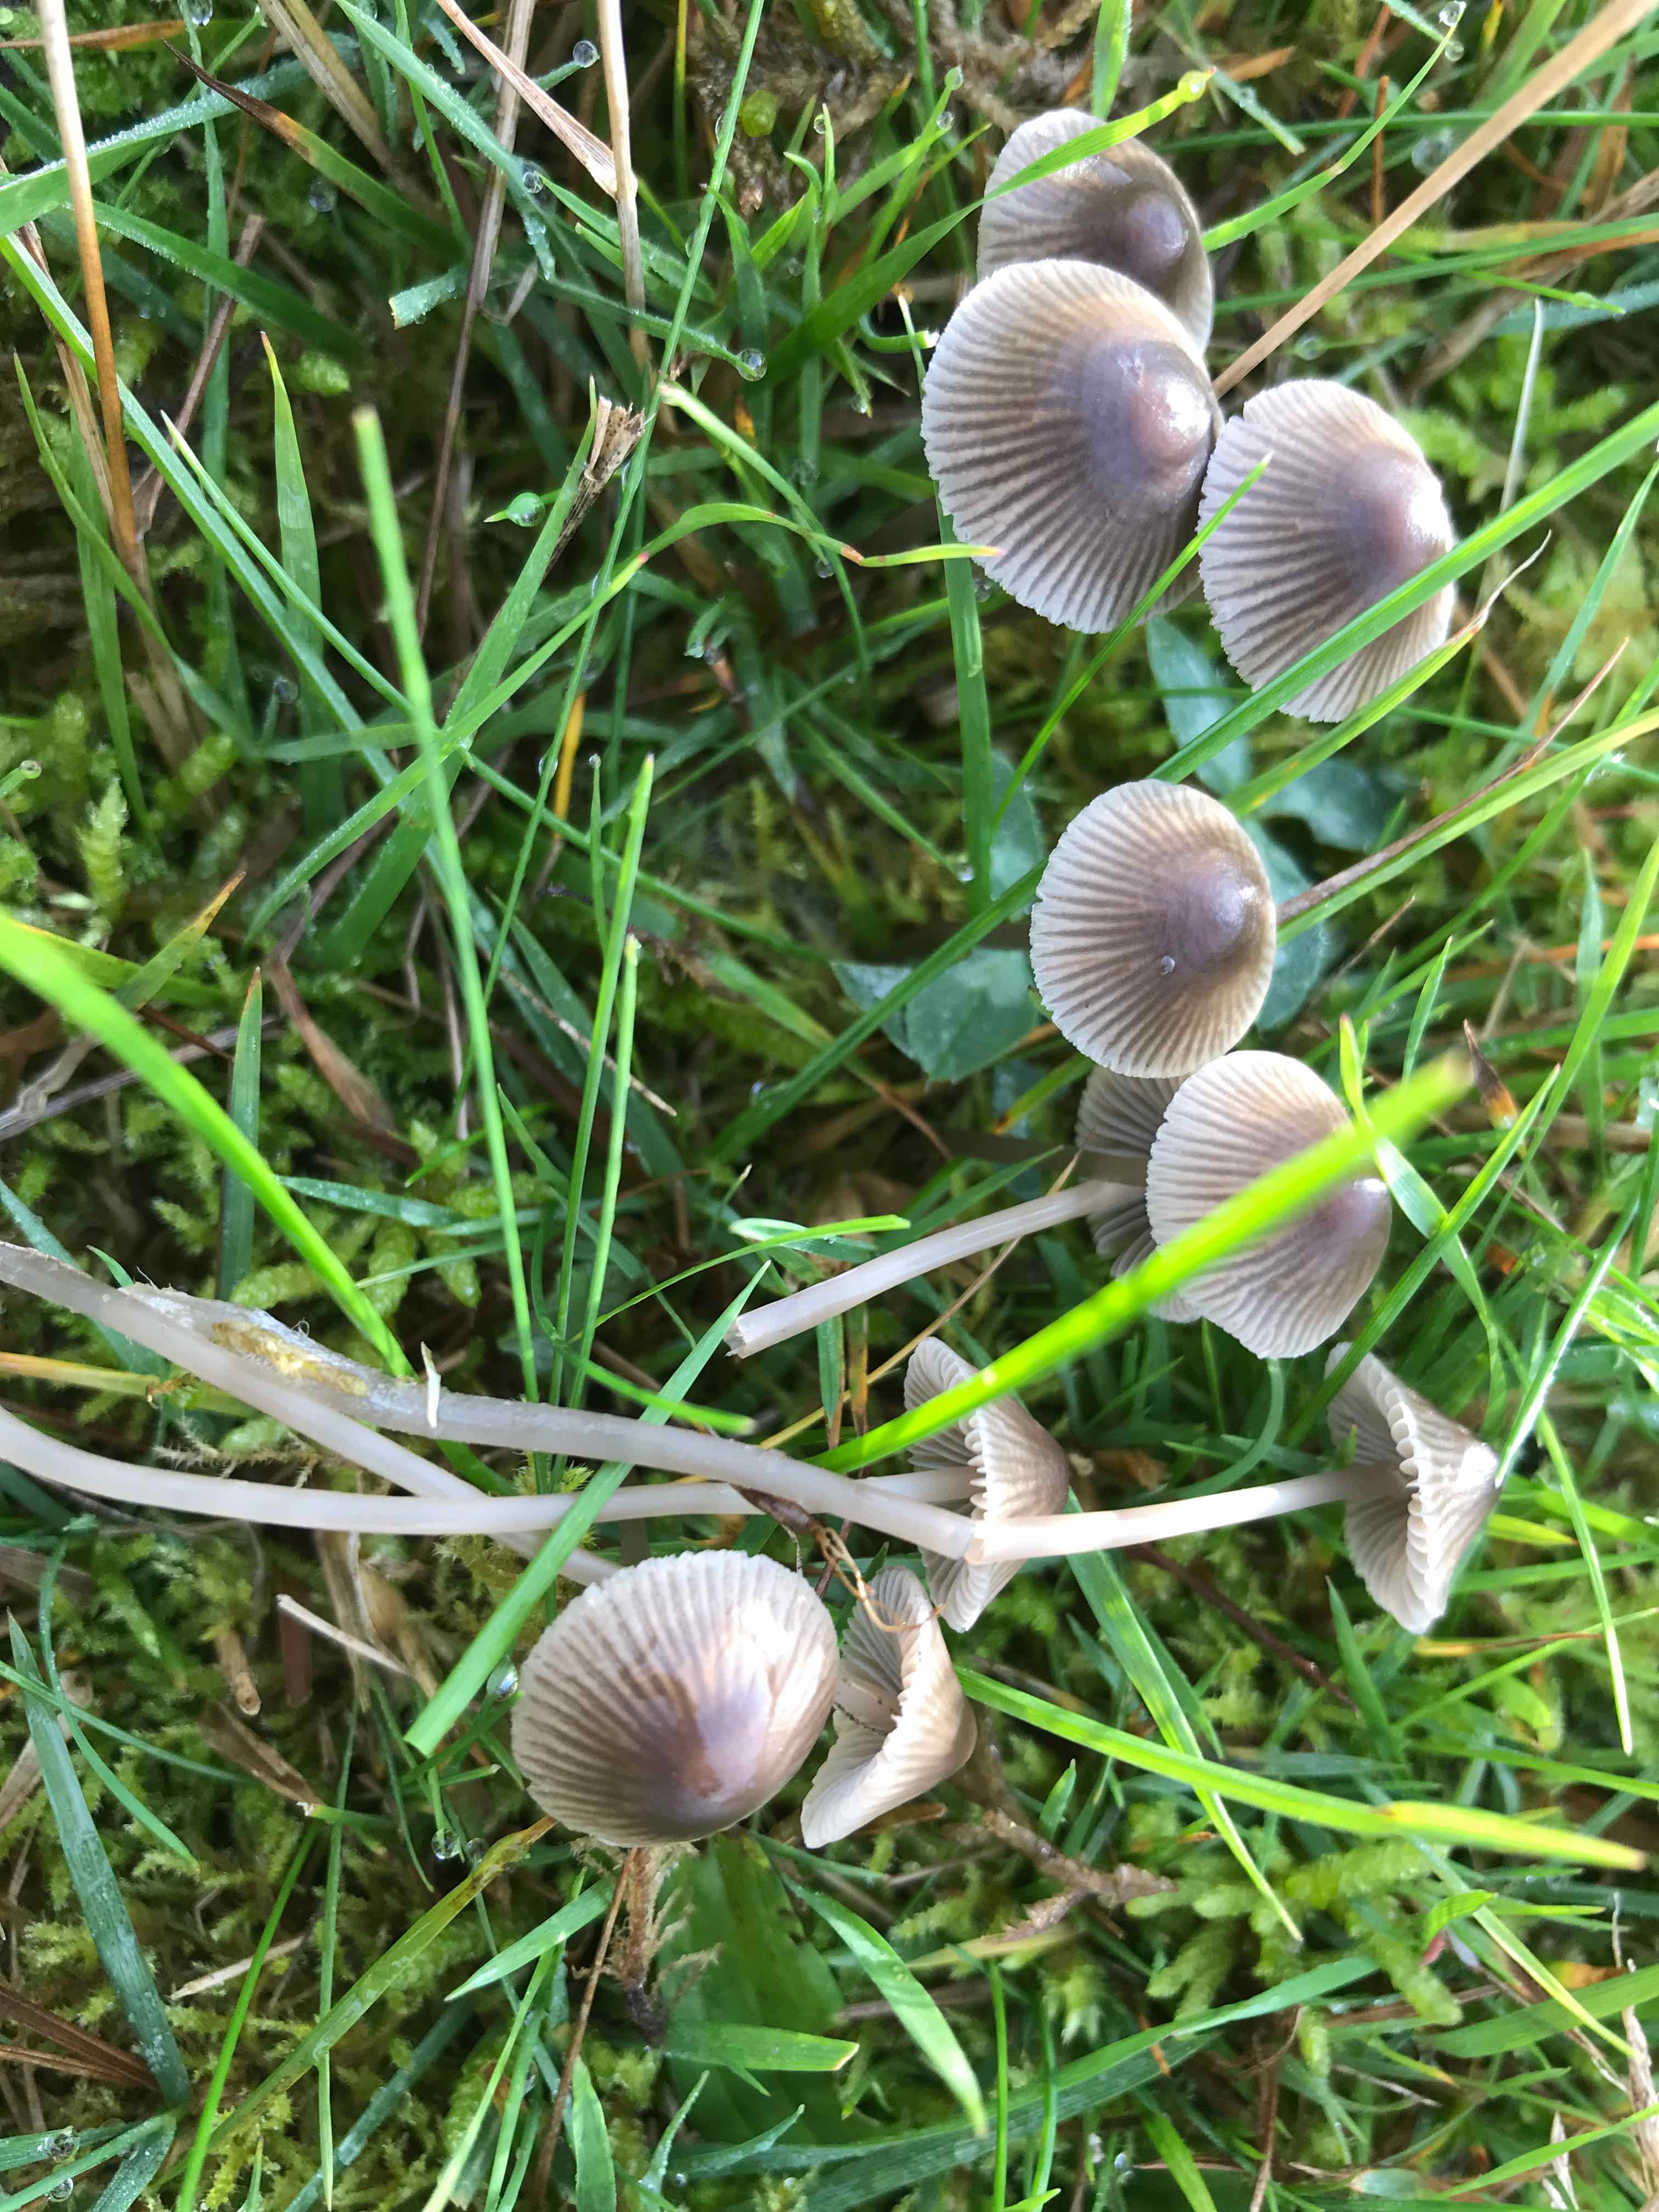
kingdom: Fungi
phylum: Basidiomycota
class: Agaricomycetes
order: Agaricales
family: Mycenaceae
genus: Mycena
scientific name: Mycena
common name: huesvamp
